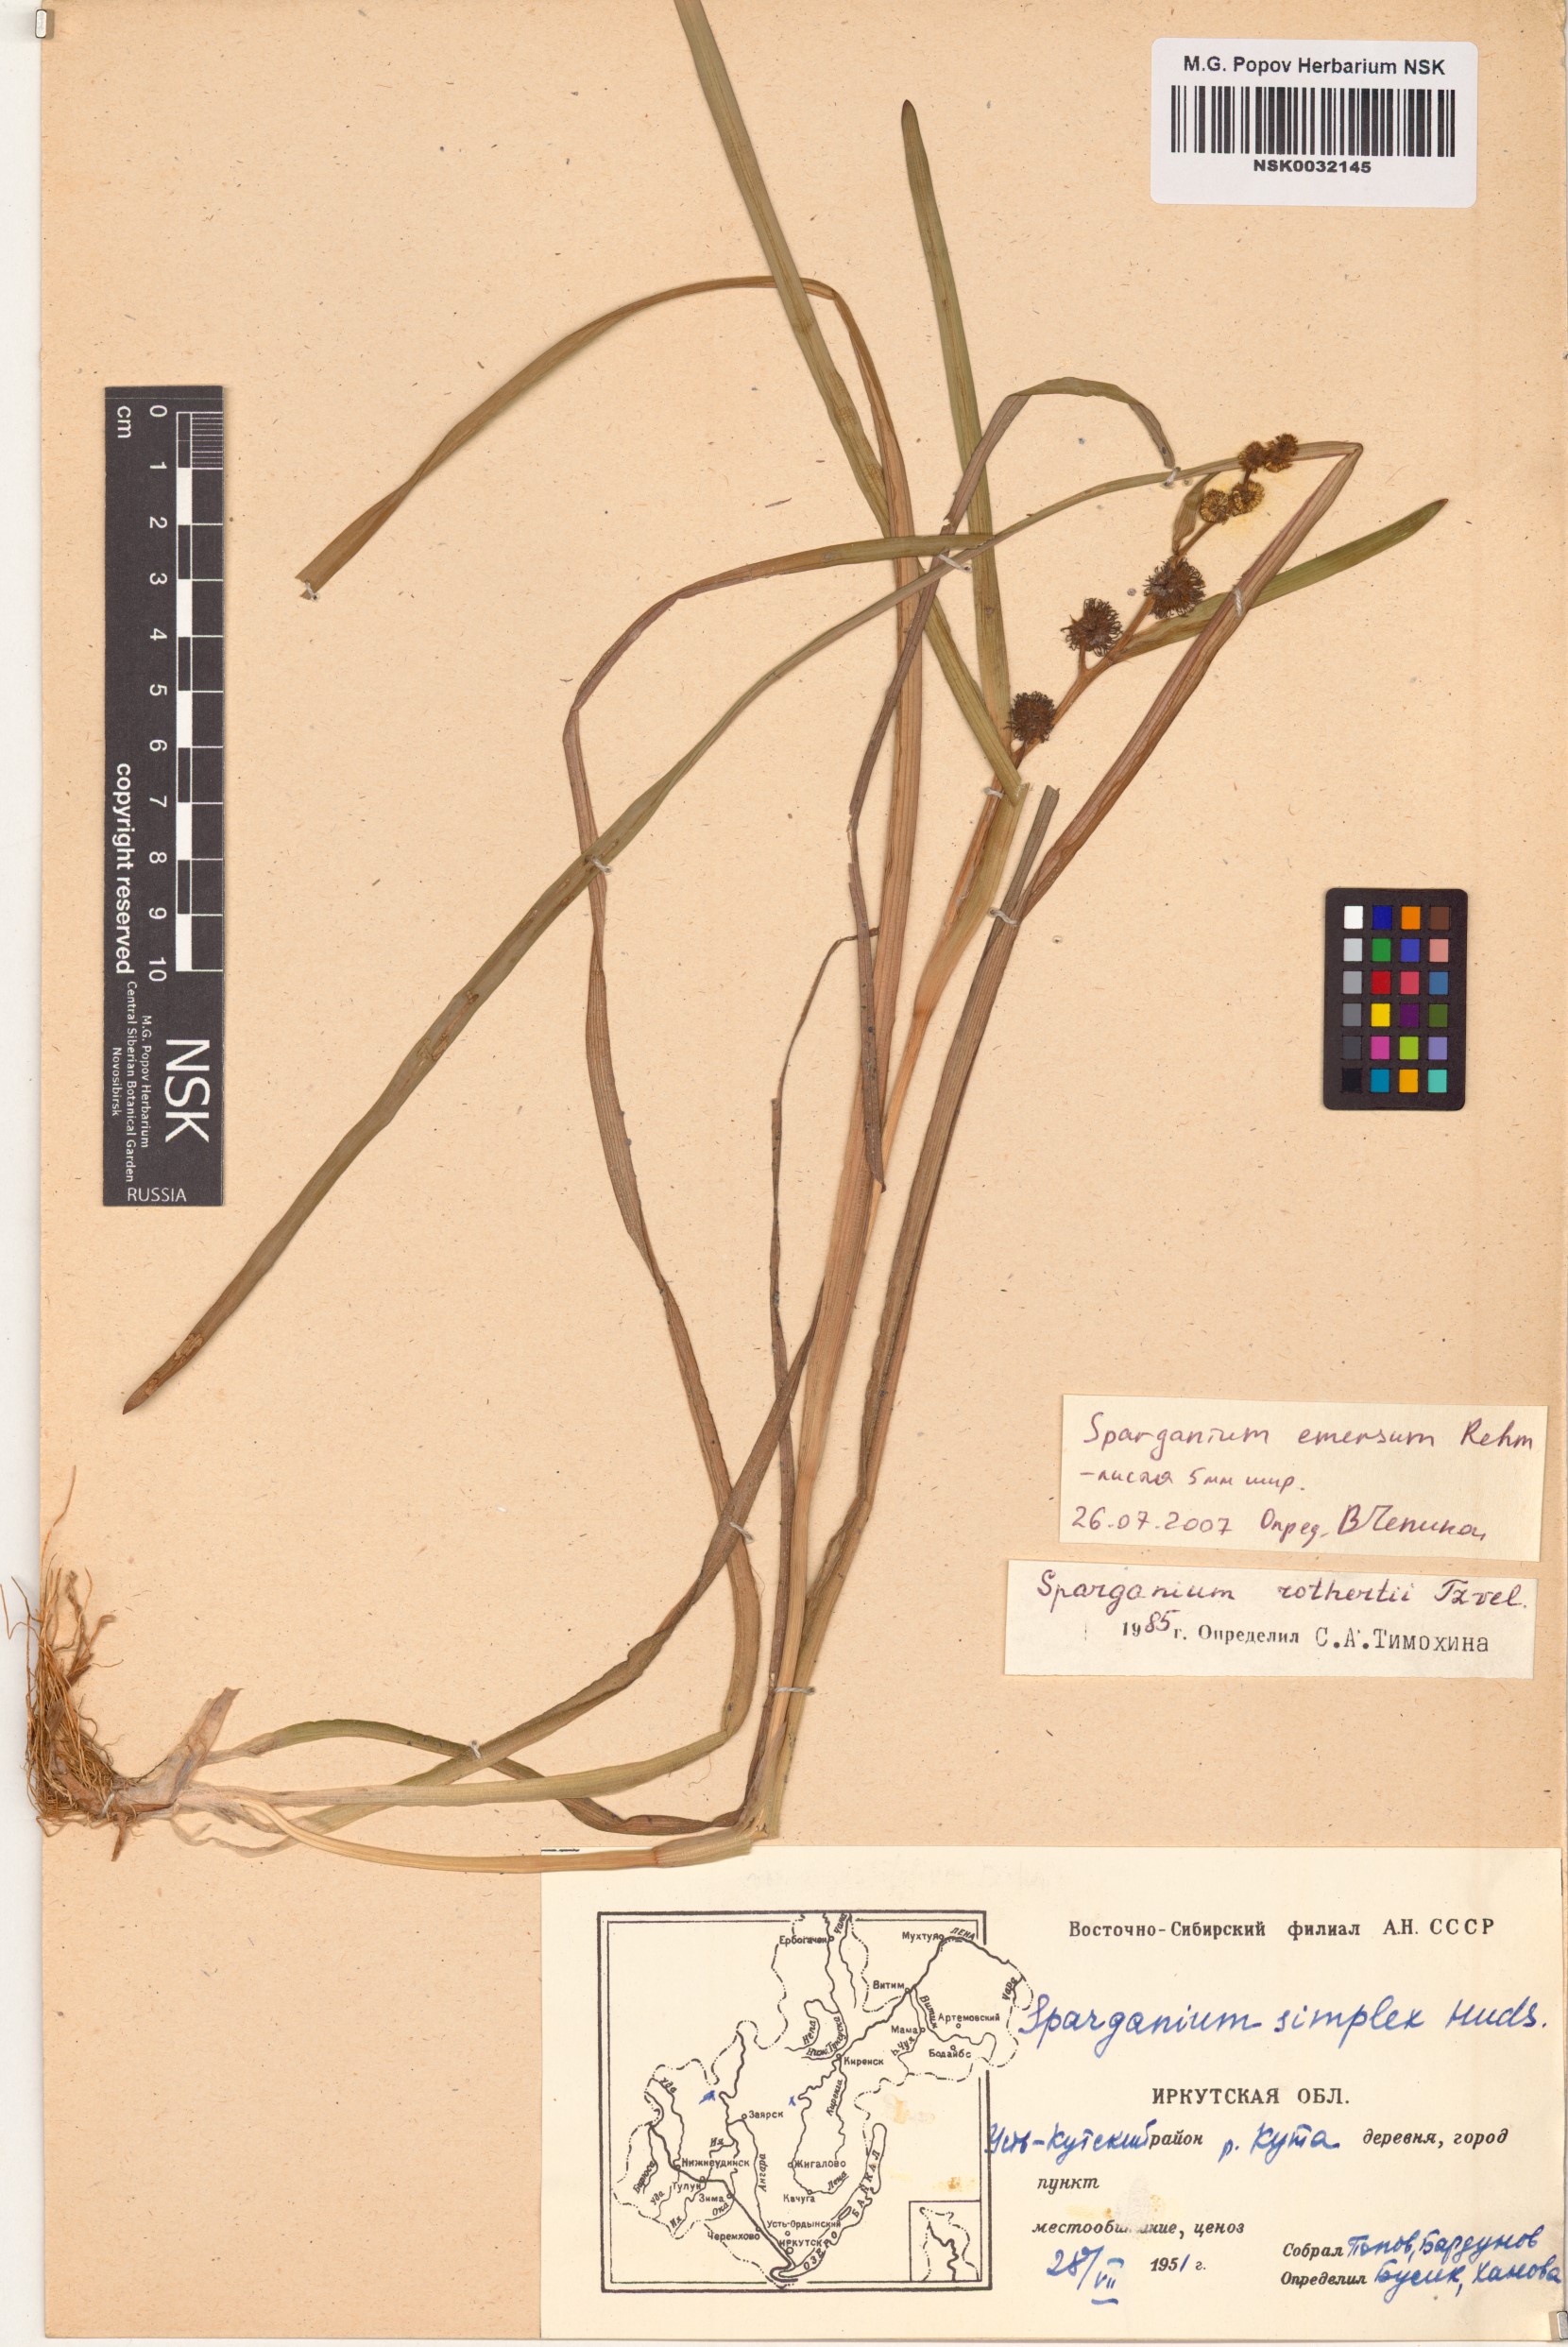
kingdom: Plantae
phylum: Tracheophyta
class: Liliopsida
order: Poales
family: Typhaceae
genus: Sparganium
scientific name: Sparganium emersum
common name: Unbranched bur-reed
